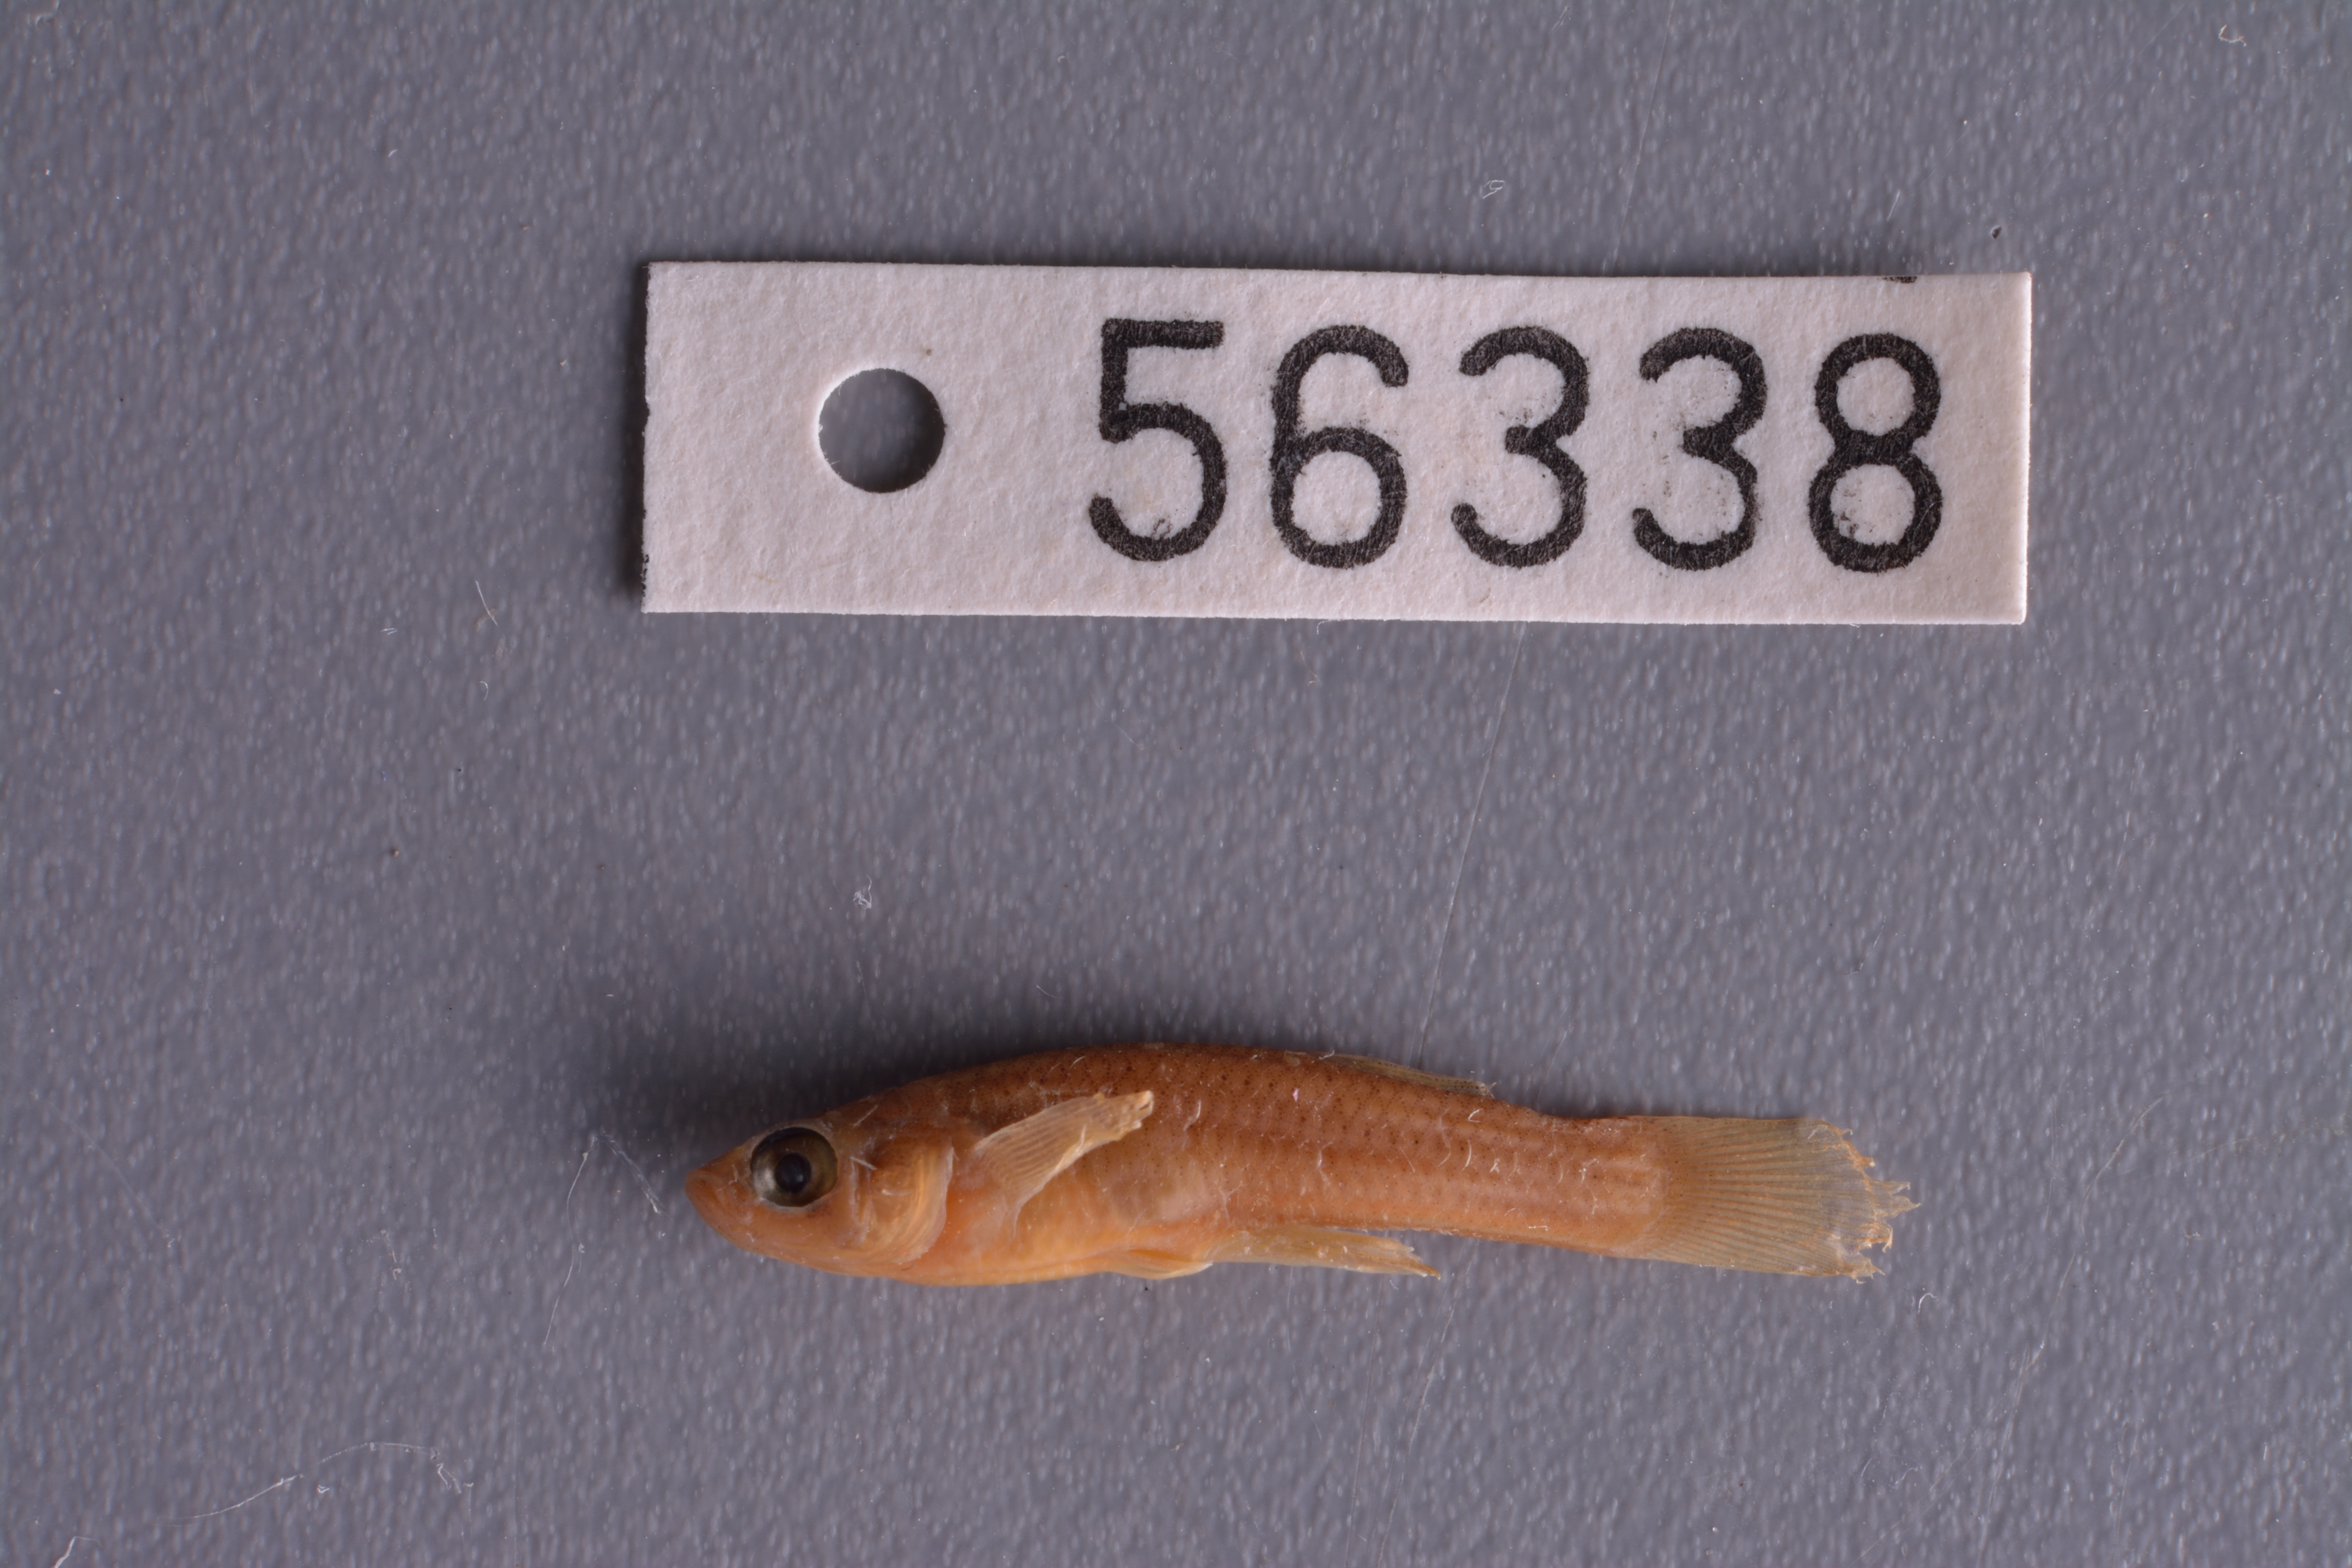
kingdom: Animalia
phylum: Chordata
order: Cyprinodontiformes
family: Poeciliidae
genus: Gambusia
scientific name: Gambusia affinis
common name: Mosquitofish
